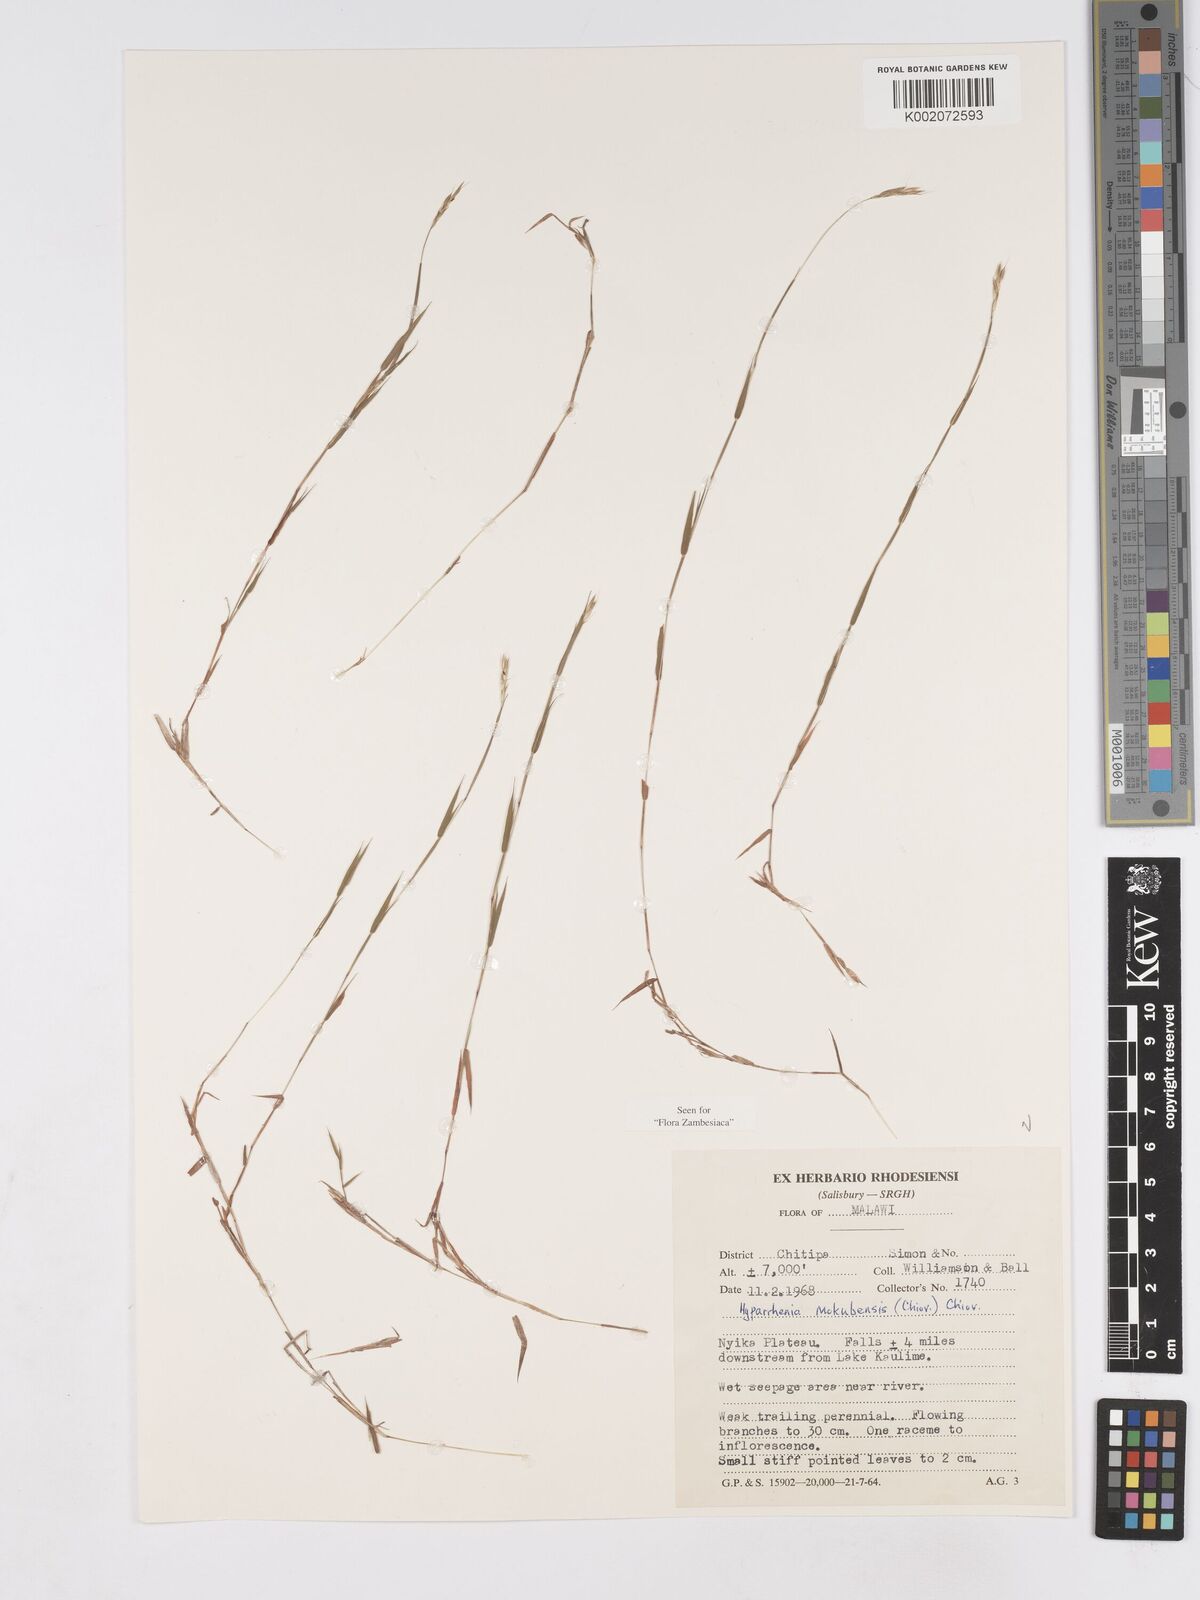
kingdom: Plantae
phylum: Tracheophyta
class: Liliopsida
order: Poales
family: Poaceae
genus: Hyparrhenia
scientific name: Hyparrhenia mobukensis
